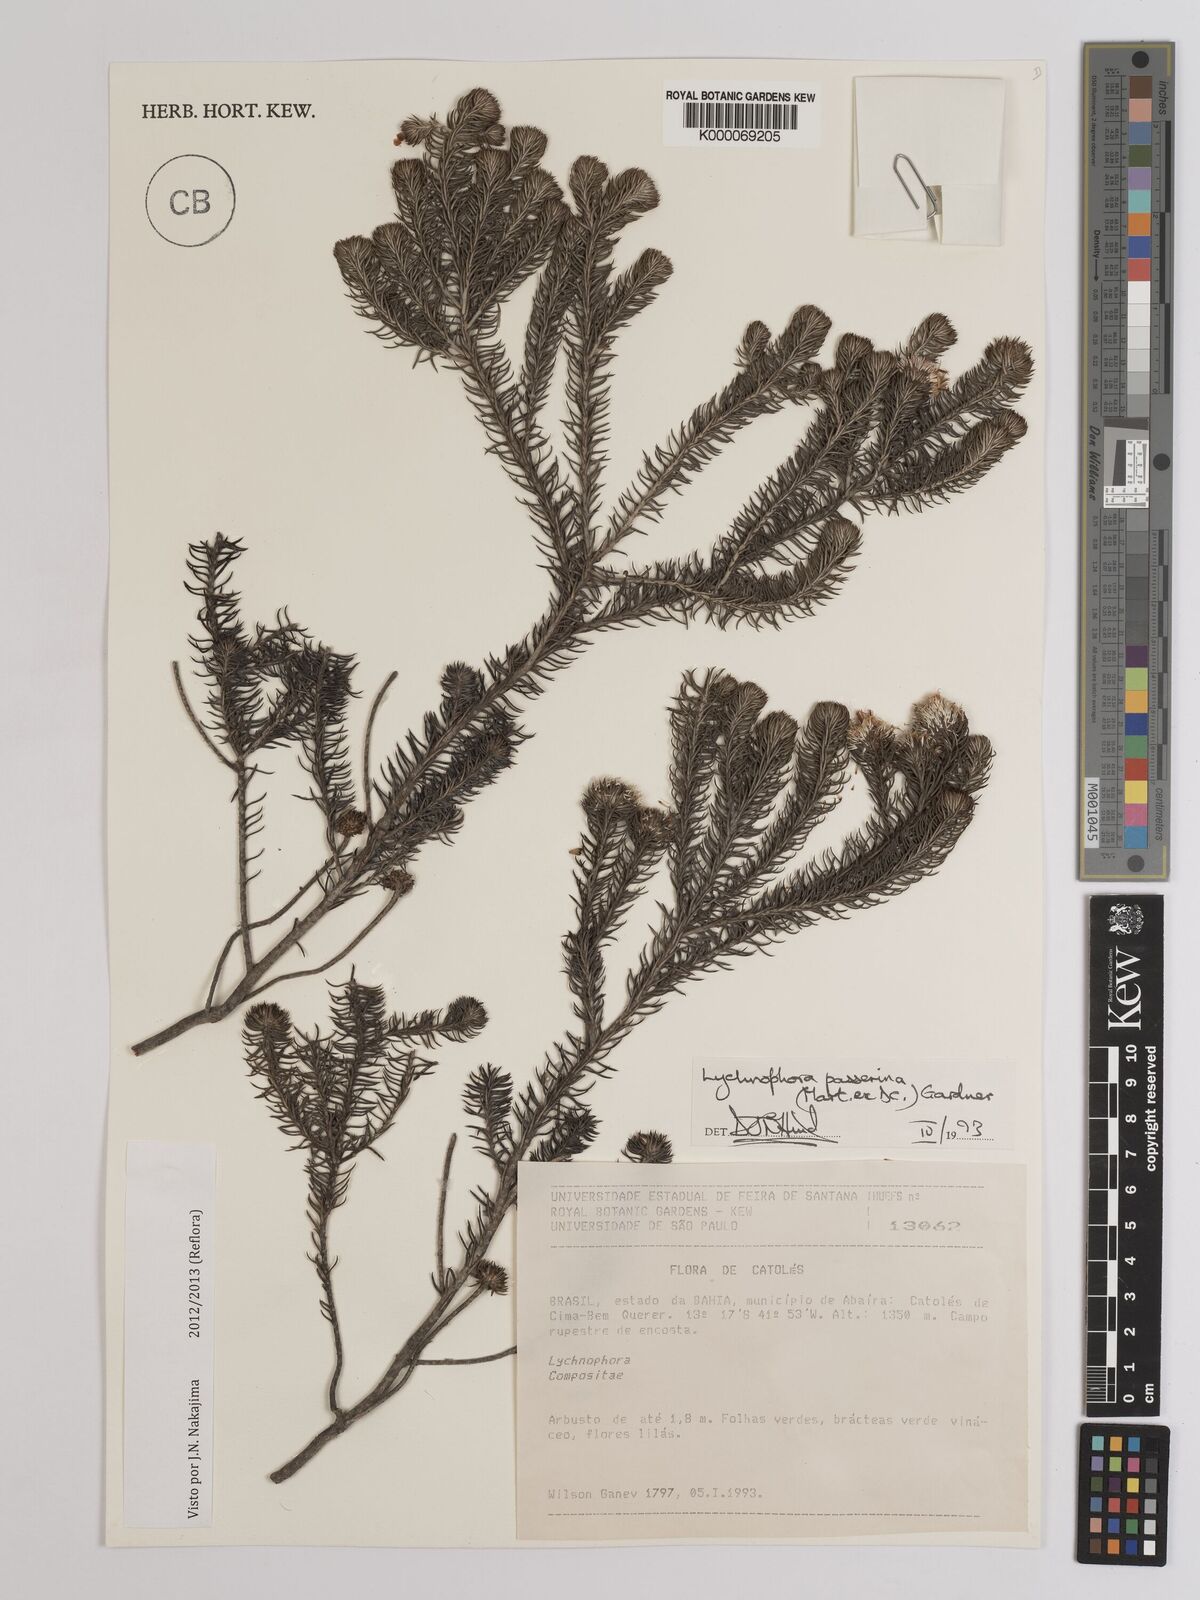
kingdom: Plantae
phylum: Tracheophyta
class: Magnoliopsida
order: Asterales
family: Asteraceae
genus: Lychnophora
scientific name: Lychnophora passerina
